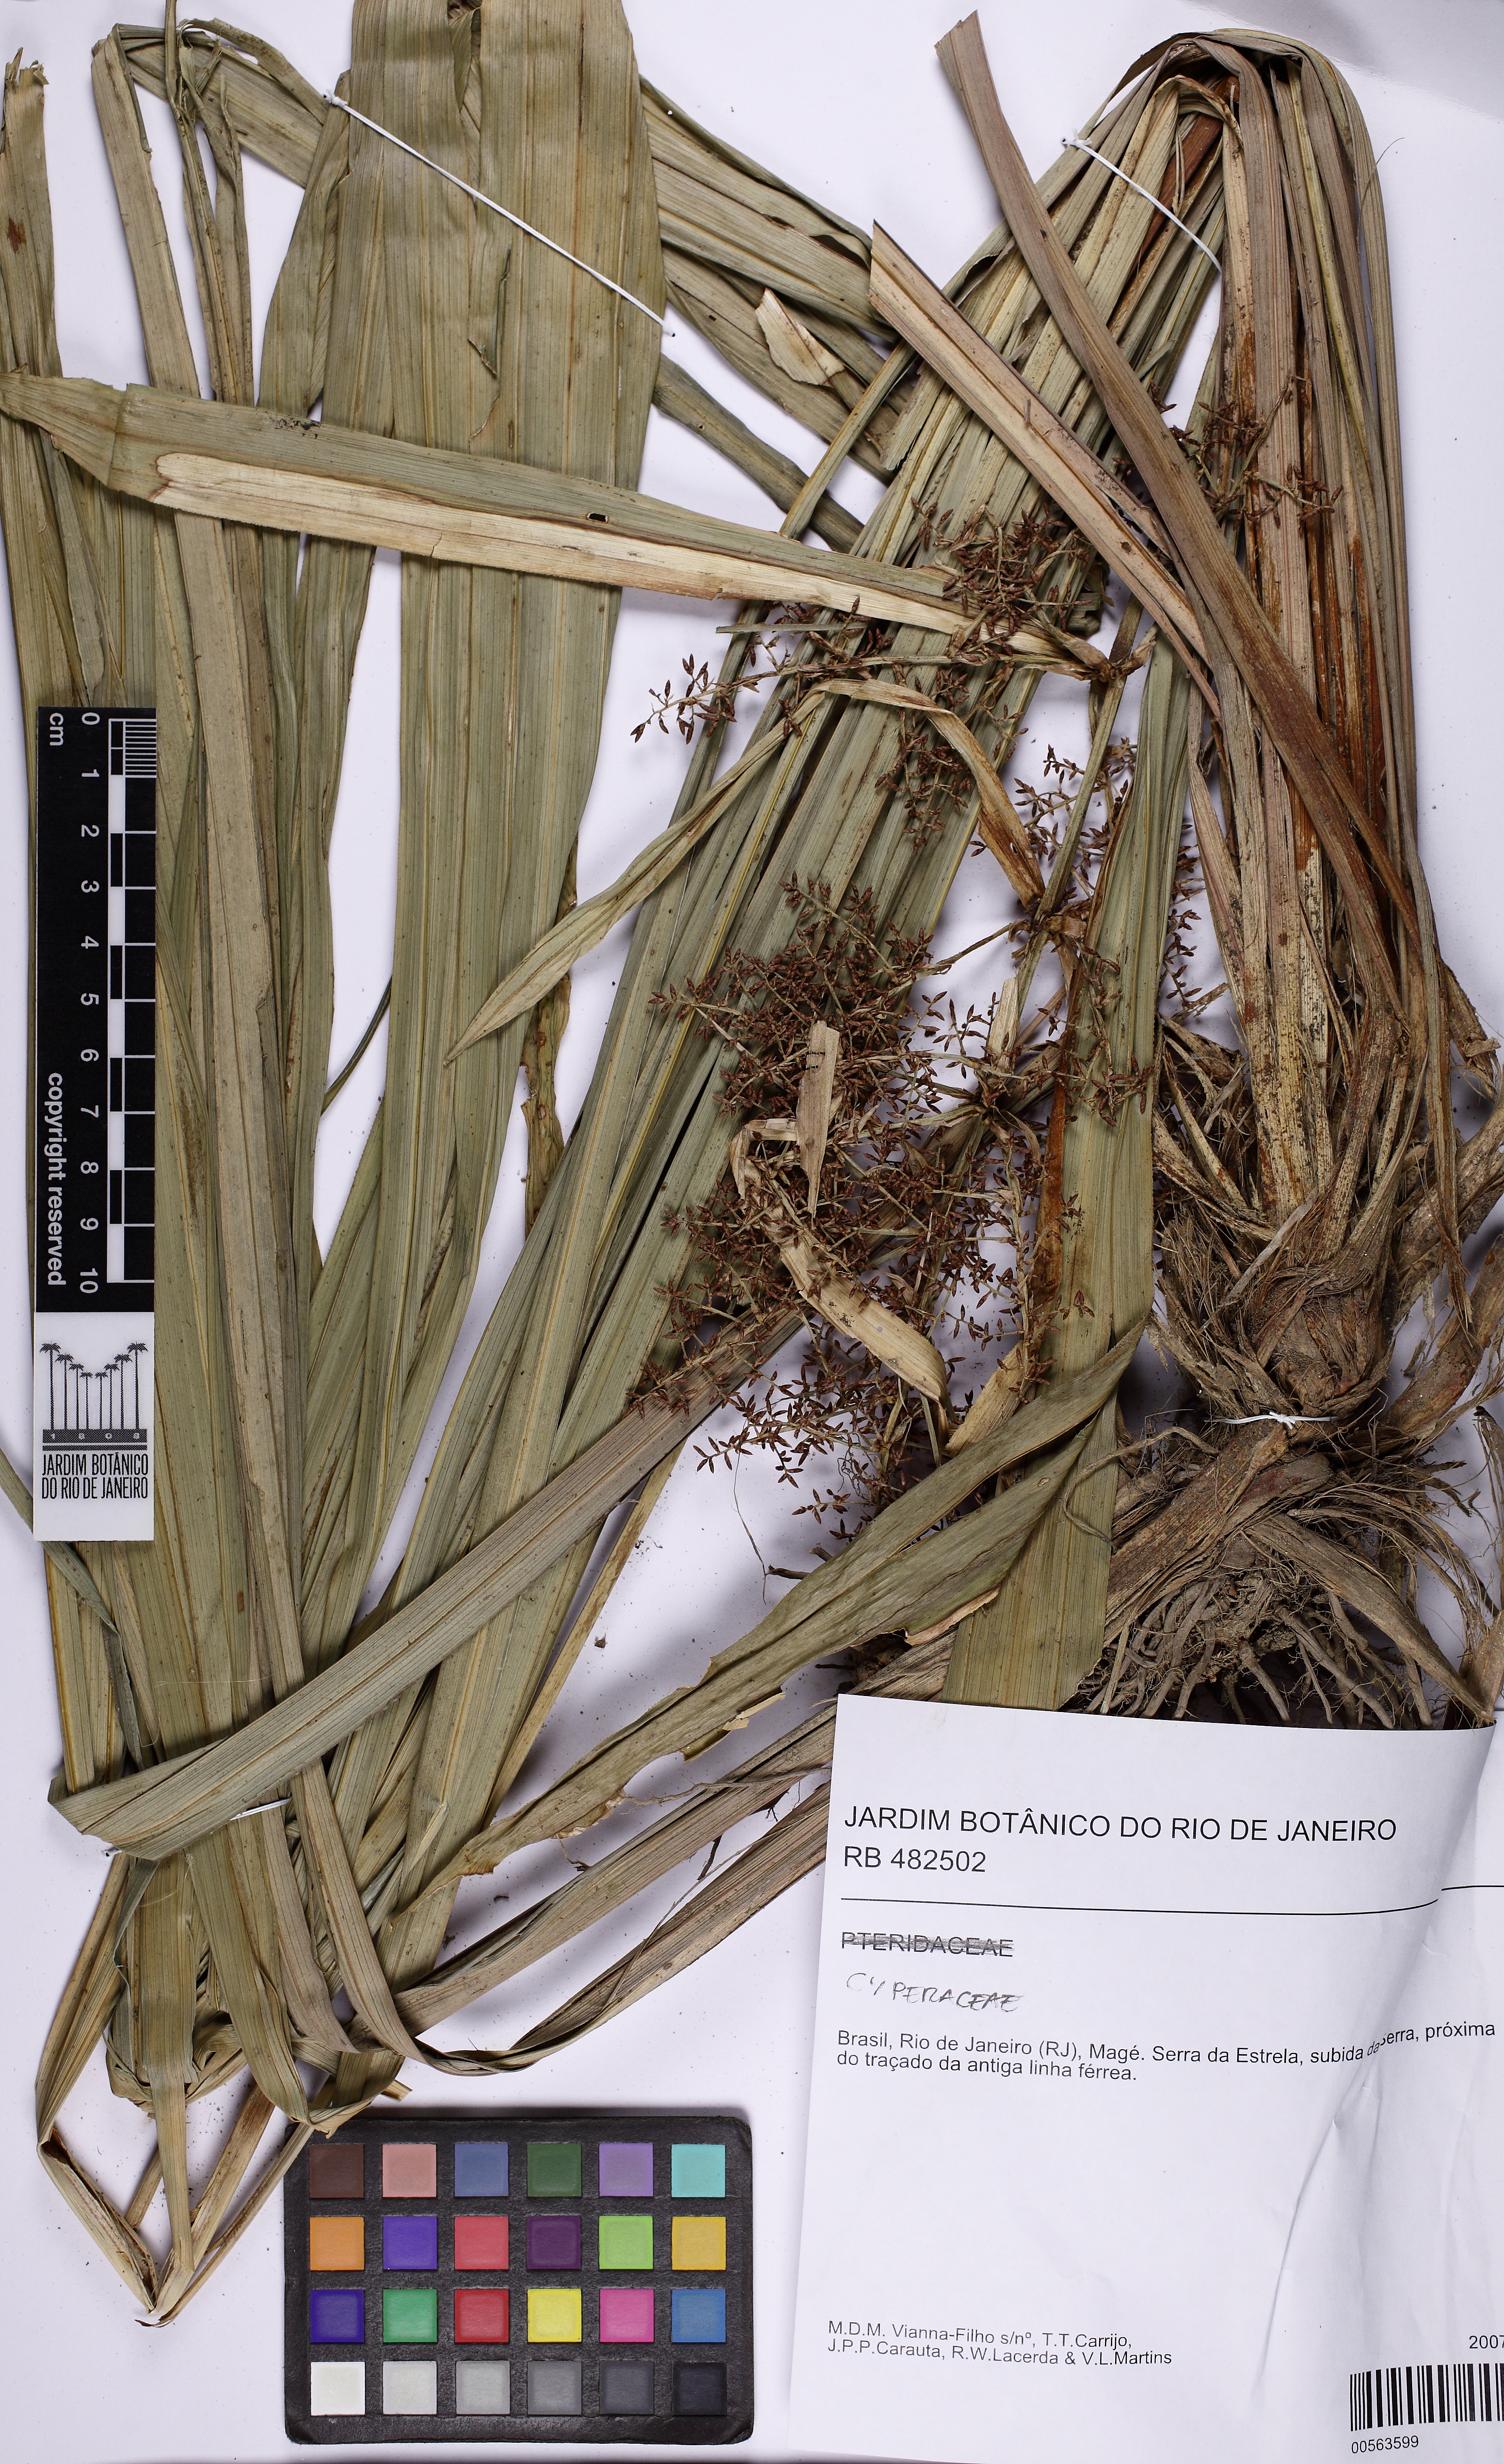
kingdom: Plantae
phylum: Tracheophyta
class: Liliopsida
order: Poales
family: Cyperaceae
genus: Hypolytrum
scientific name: Hypolytrum schraderianum
